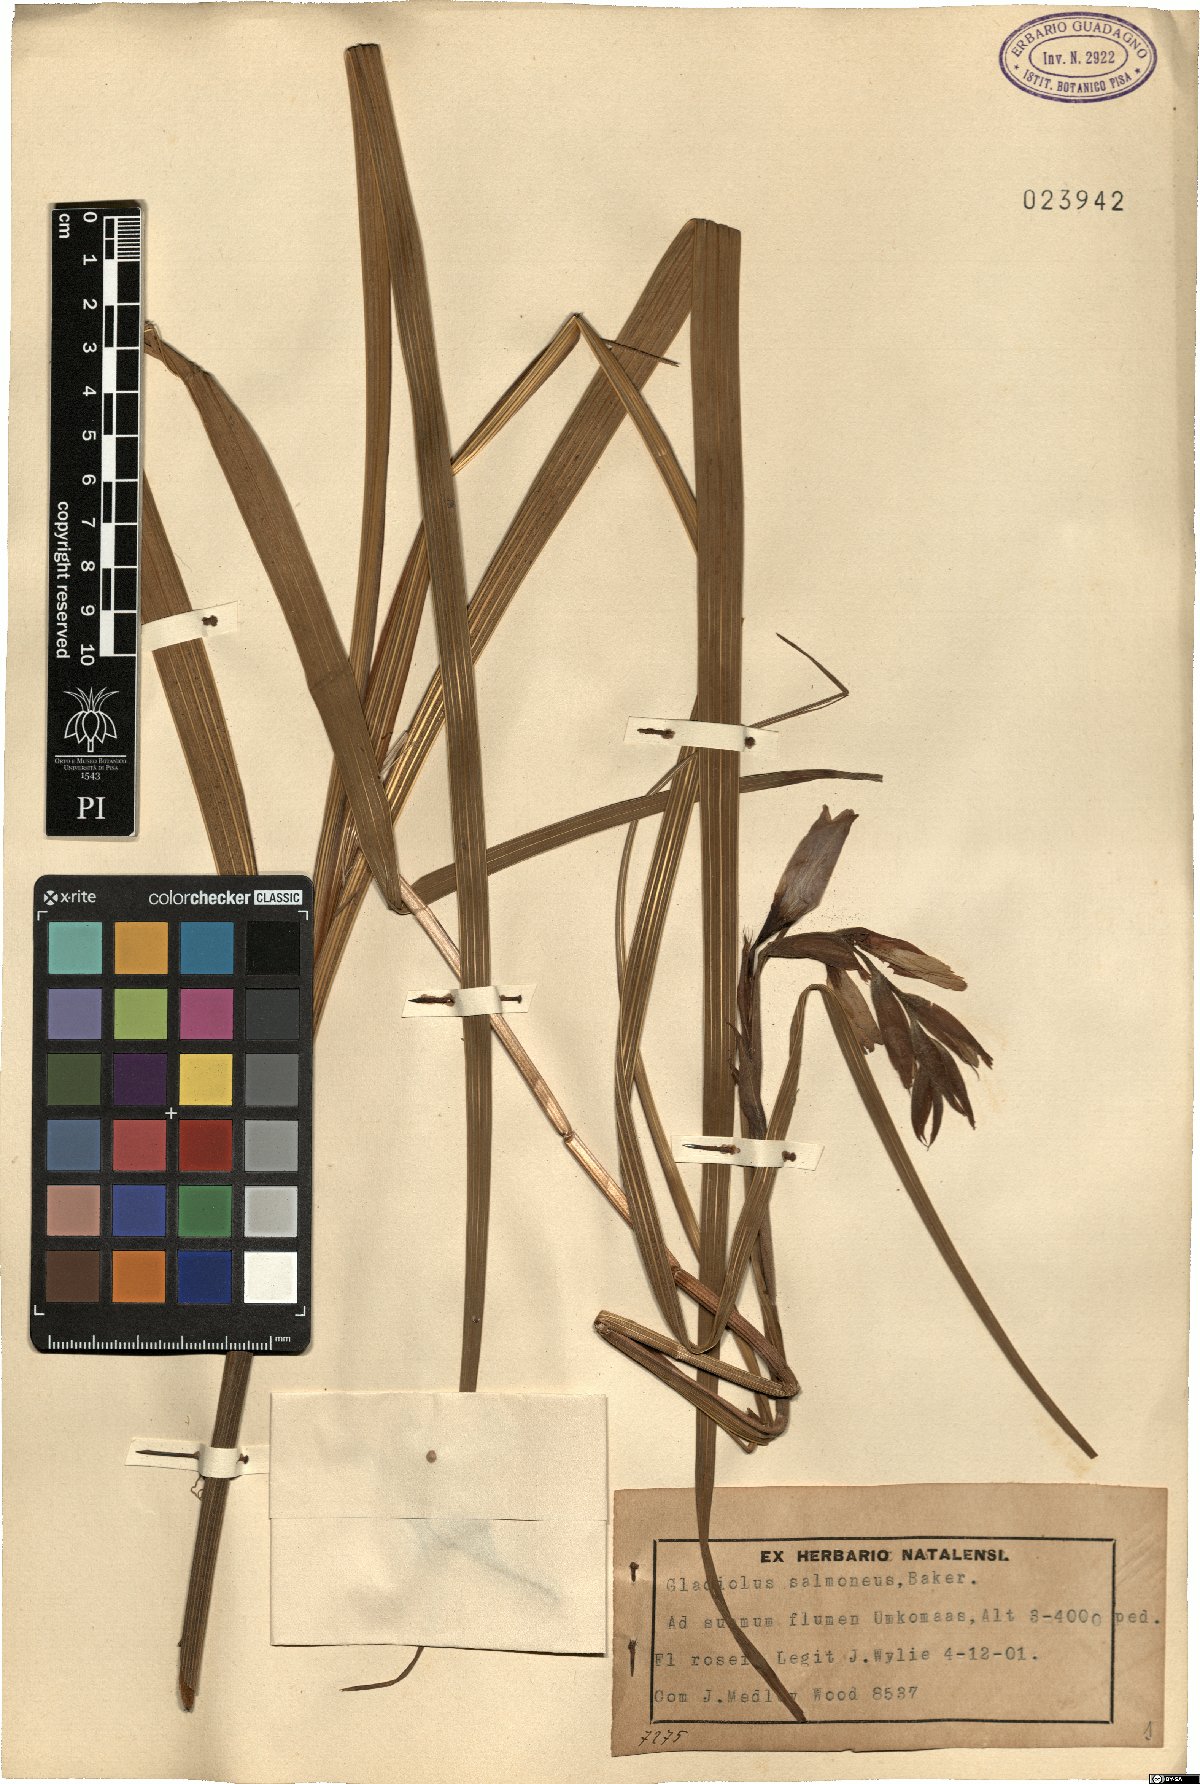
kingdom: Plantae
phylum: Tracheophyta
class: Liliopsida
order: Asparagales
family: Iridaceae
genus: Gladiolus
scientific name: Gladiolus oppositiflorus
